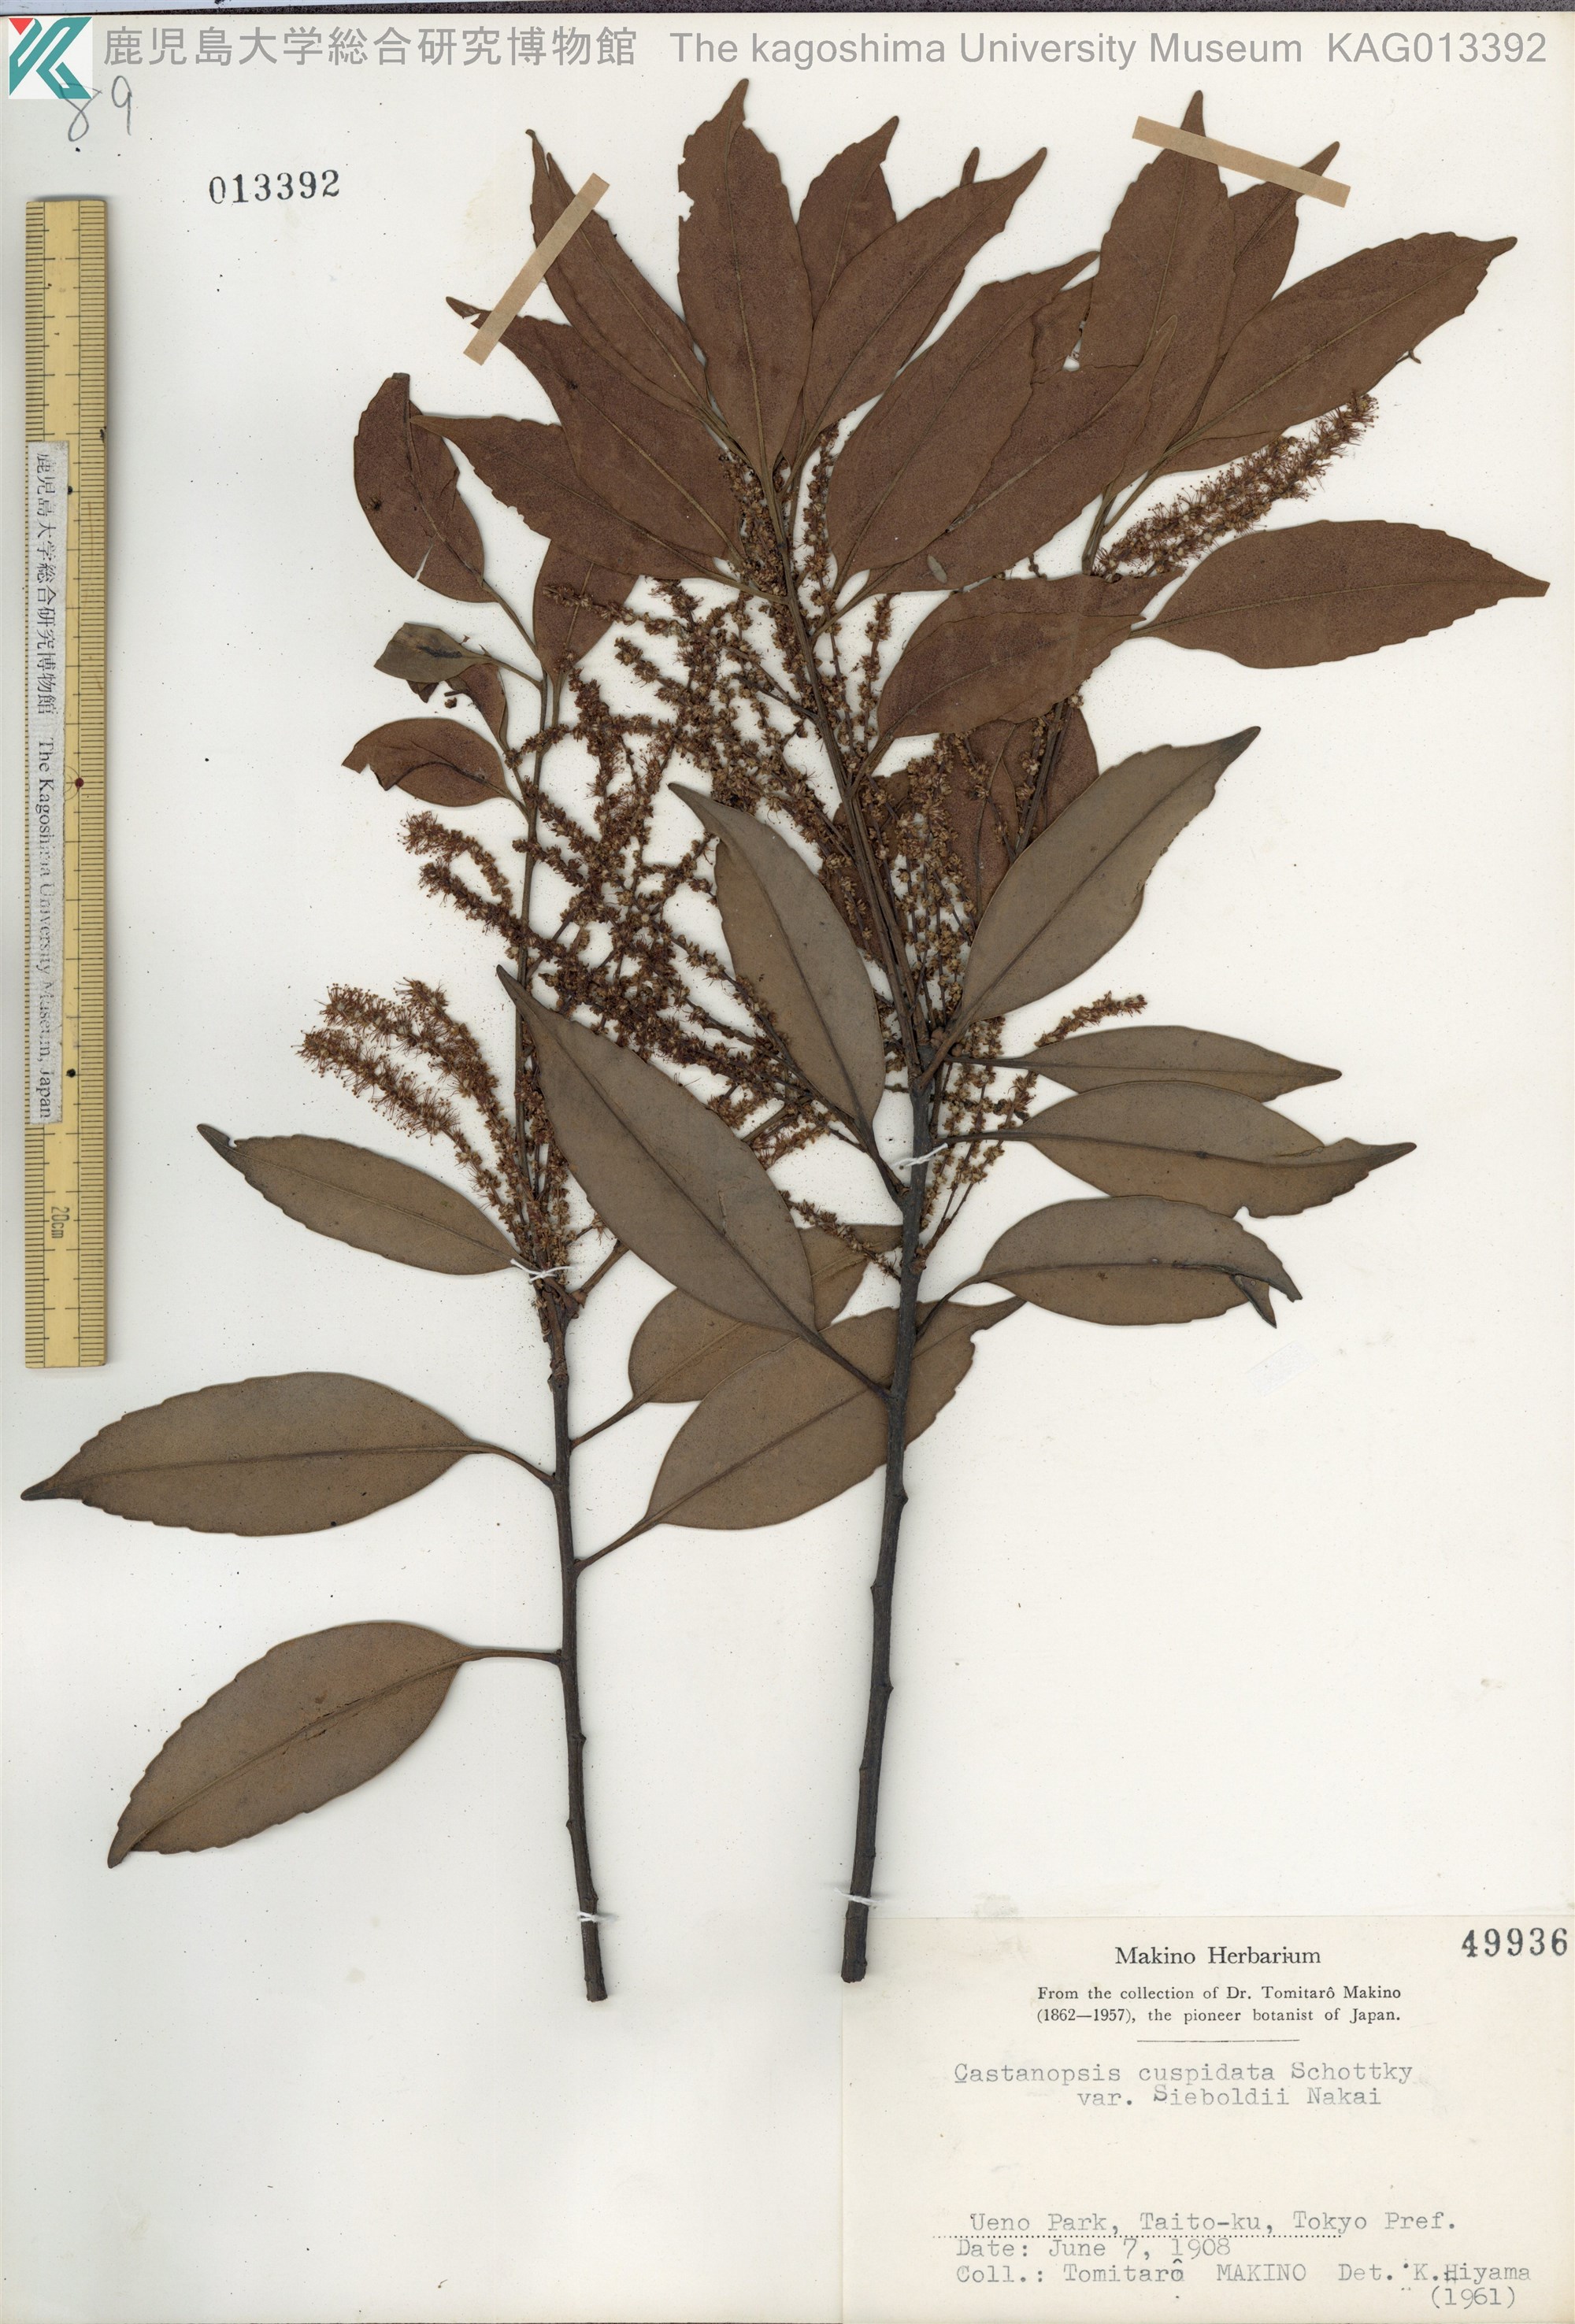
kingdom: Plantae
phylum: Tracheophyta
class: Magnoliopsida
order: Fagales
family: Fagaceae
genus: Castanopsis
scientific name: Castanopsis sieboldii
